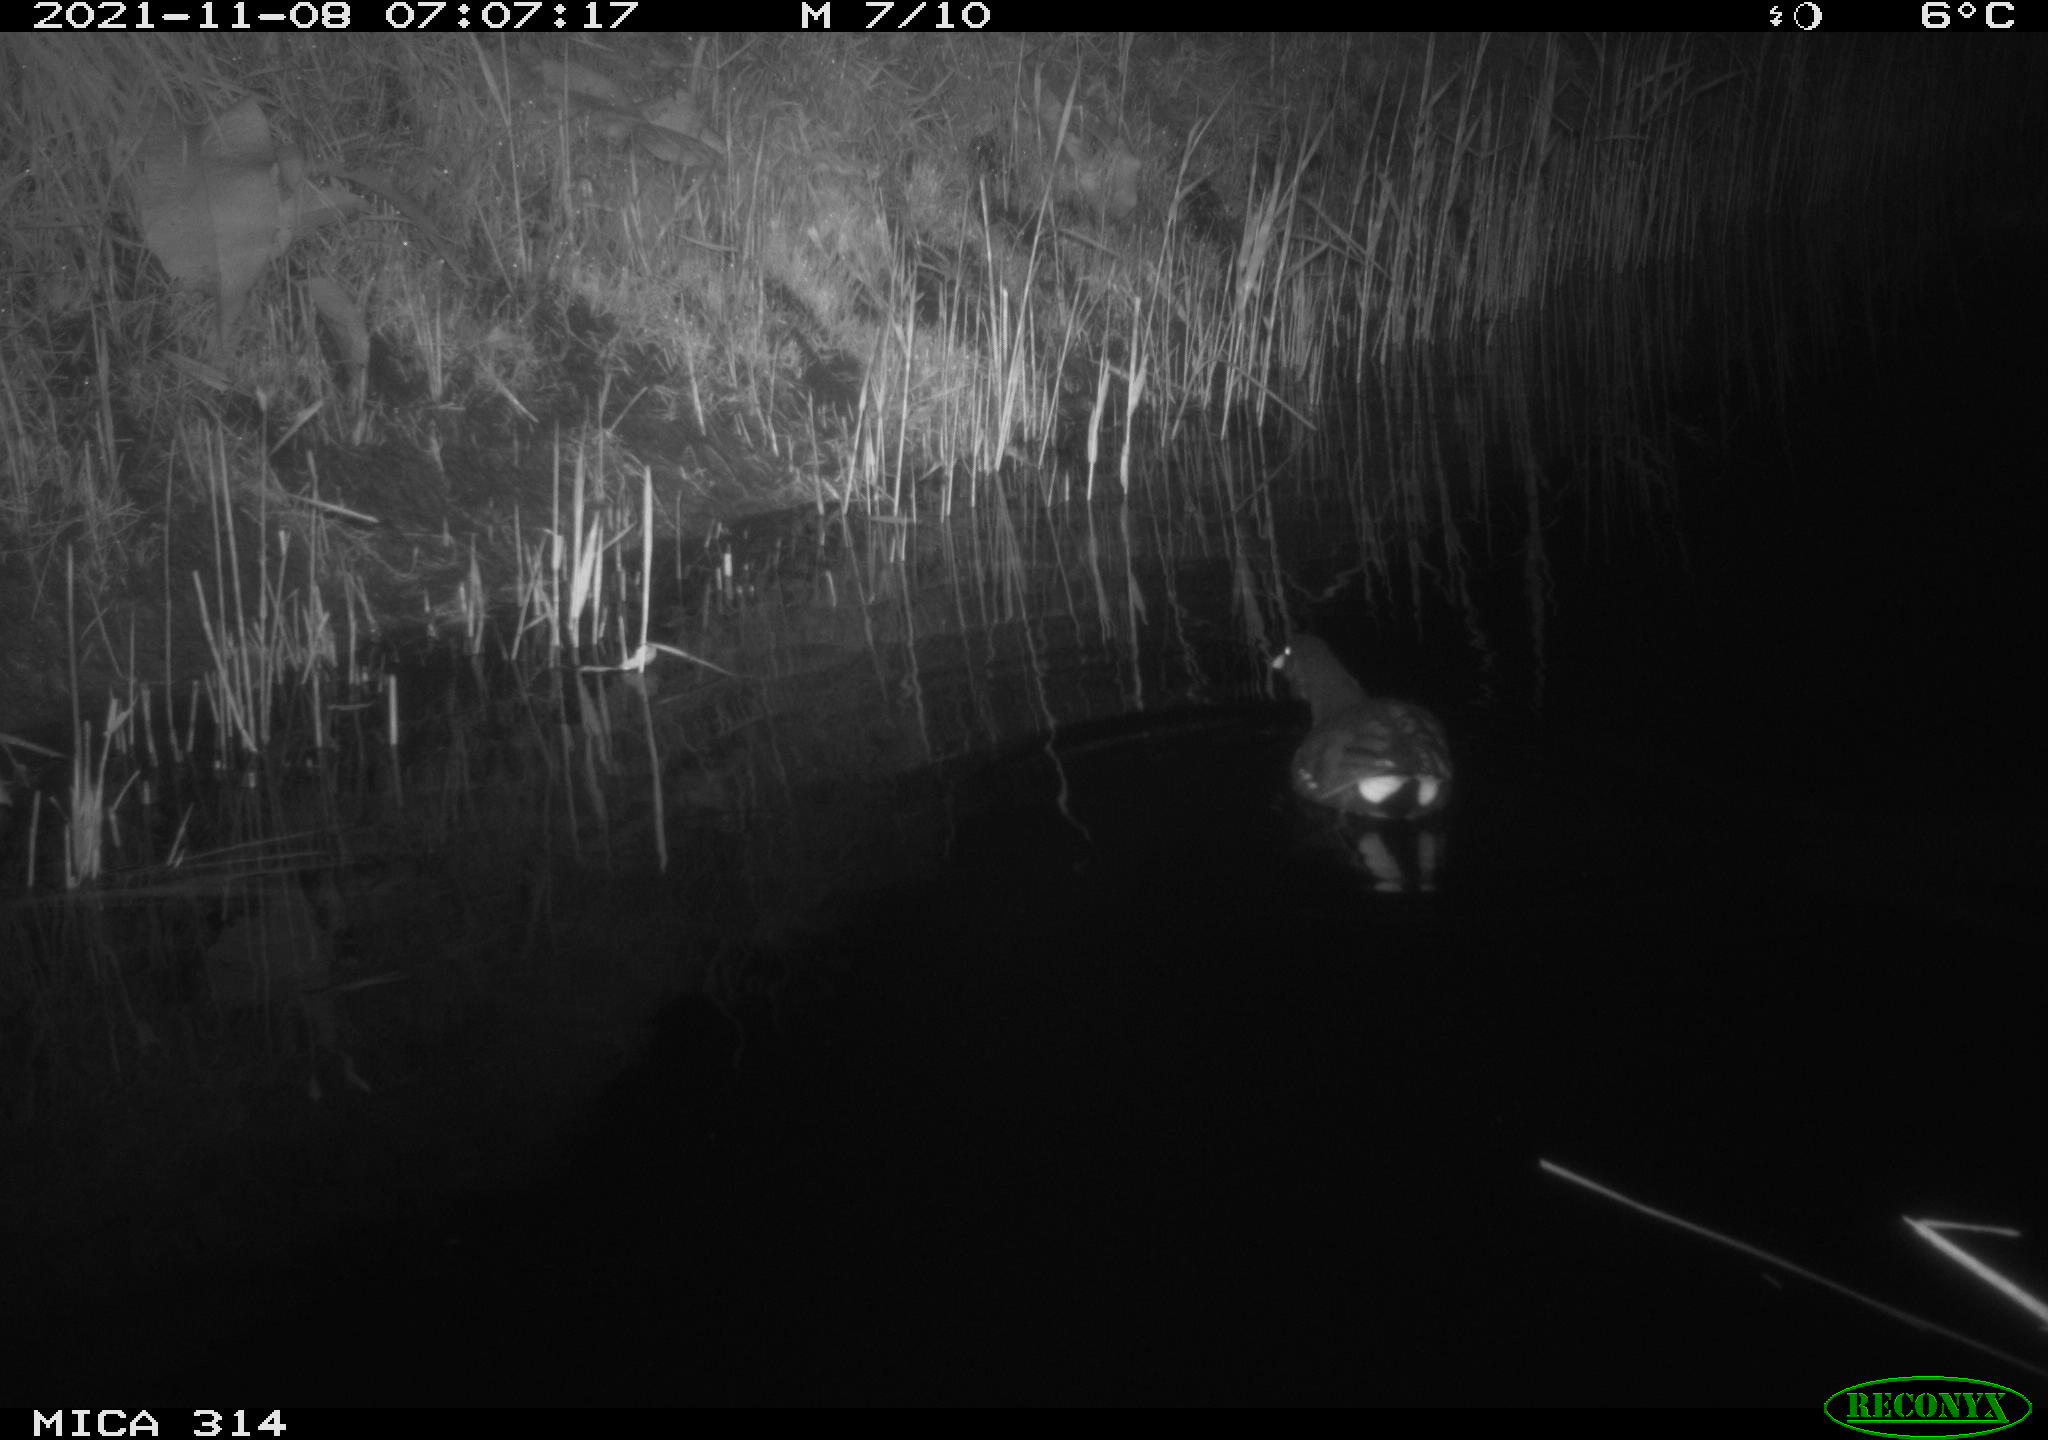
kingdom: Animalia
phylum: Chordata
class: Aves
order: Gruiformes
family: Rallidae
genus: Gallinula
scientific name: Gallinula chloropus
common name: Common moorhen
